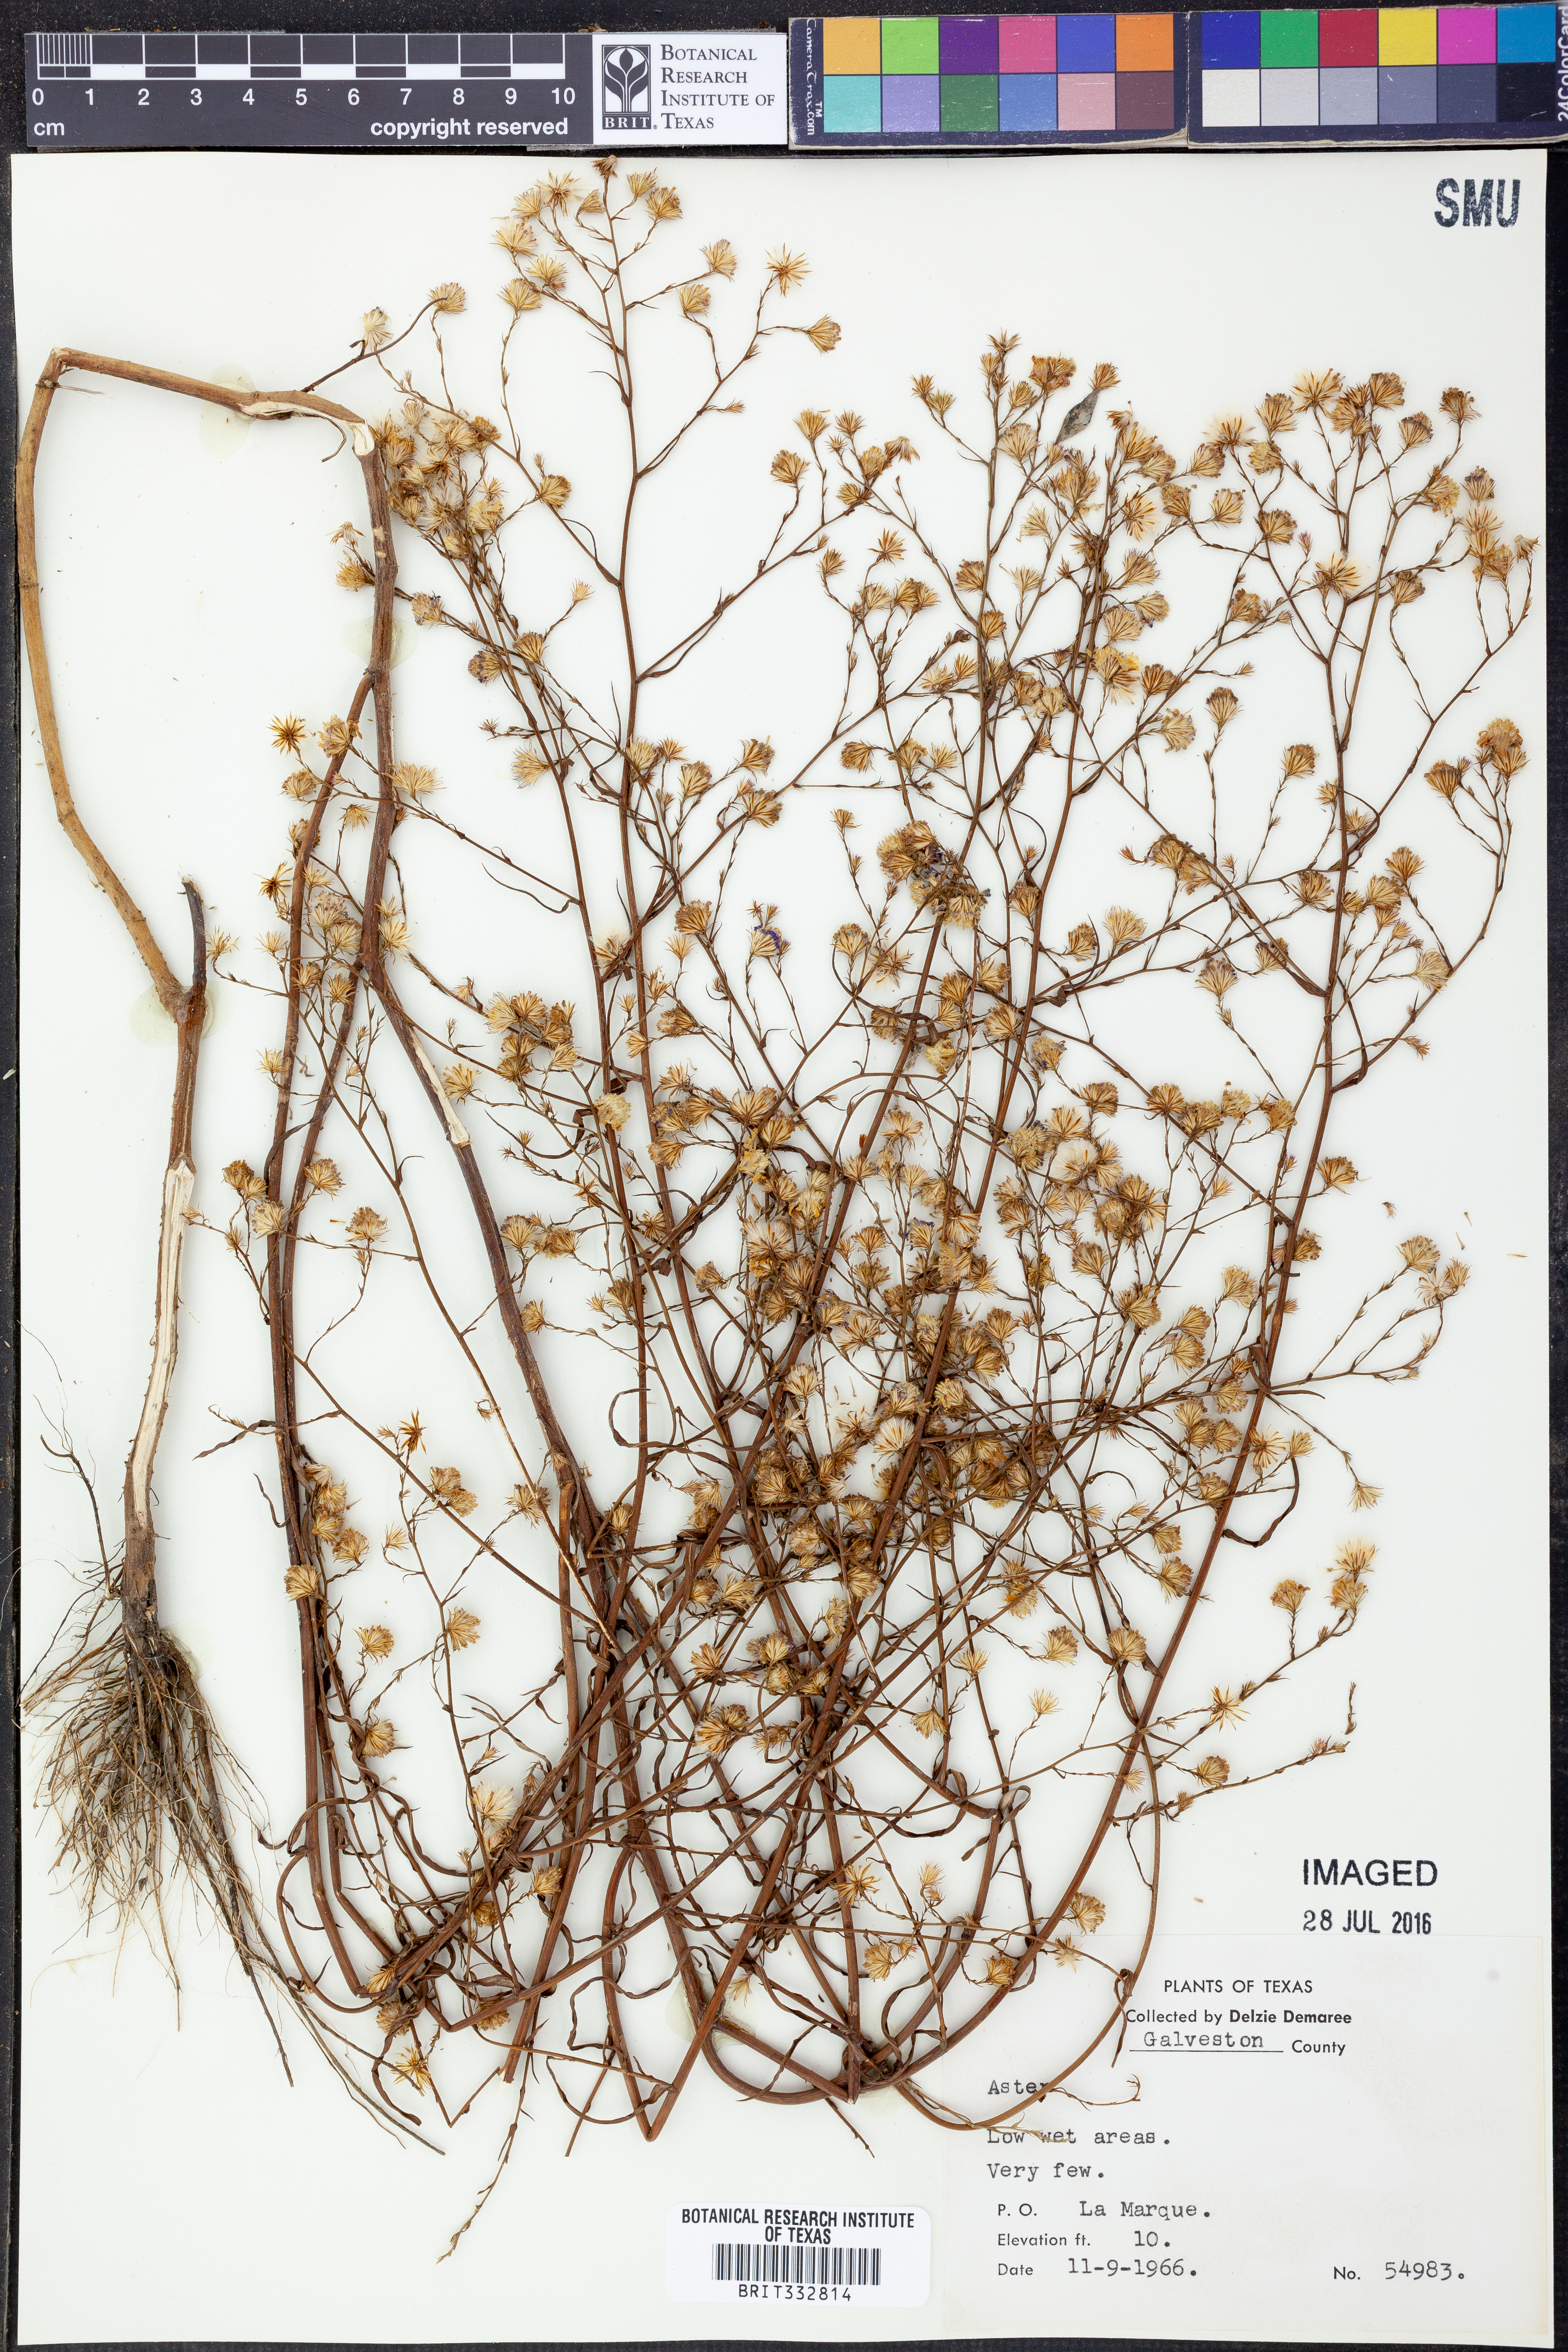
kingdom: Plantae
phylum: Tracheophyta
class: Magnoliopsida
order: Asterales
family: Asteraceae
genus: Aster
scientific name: Aster
